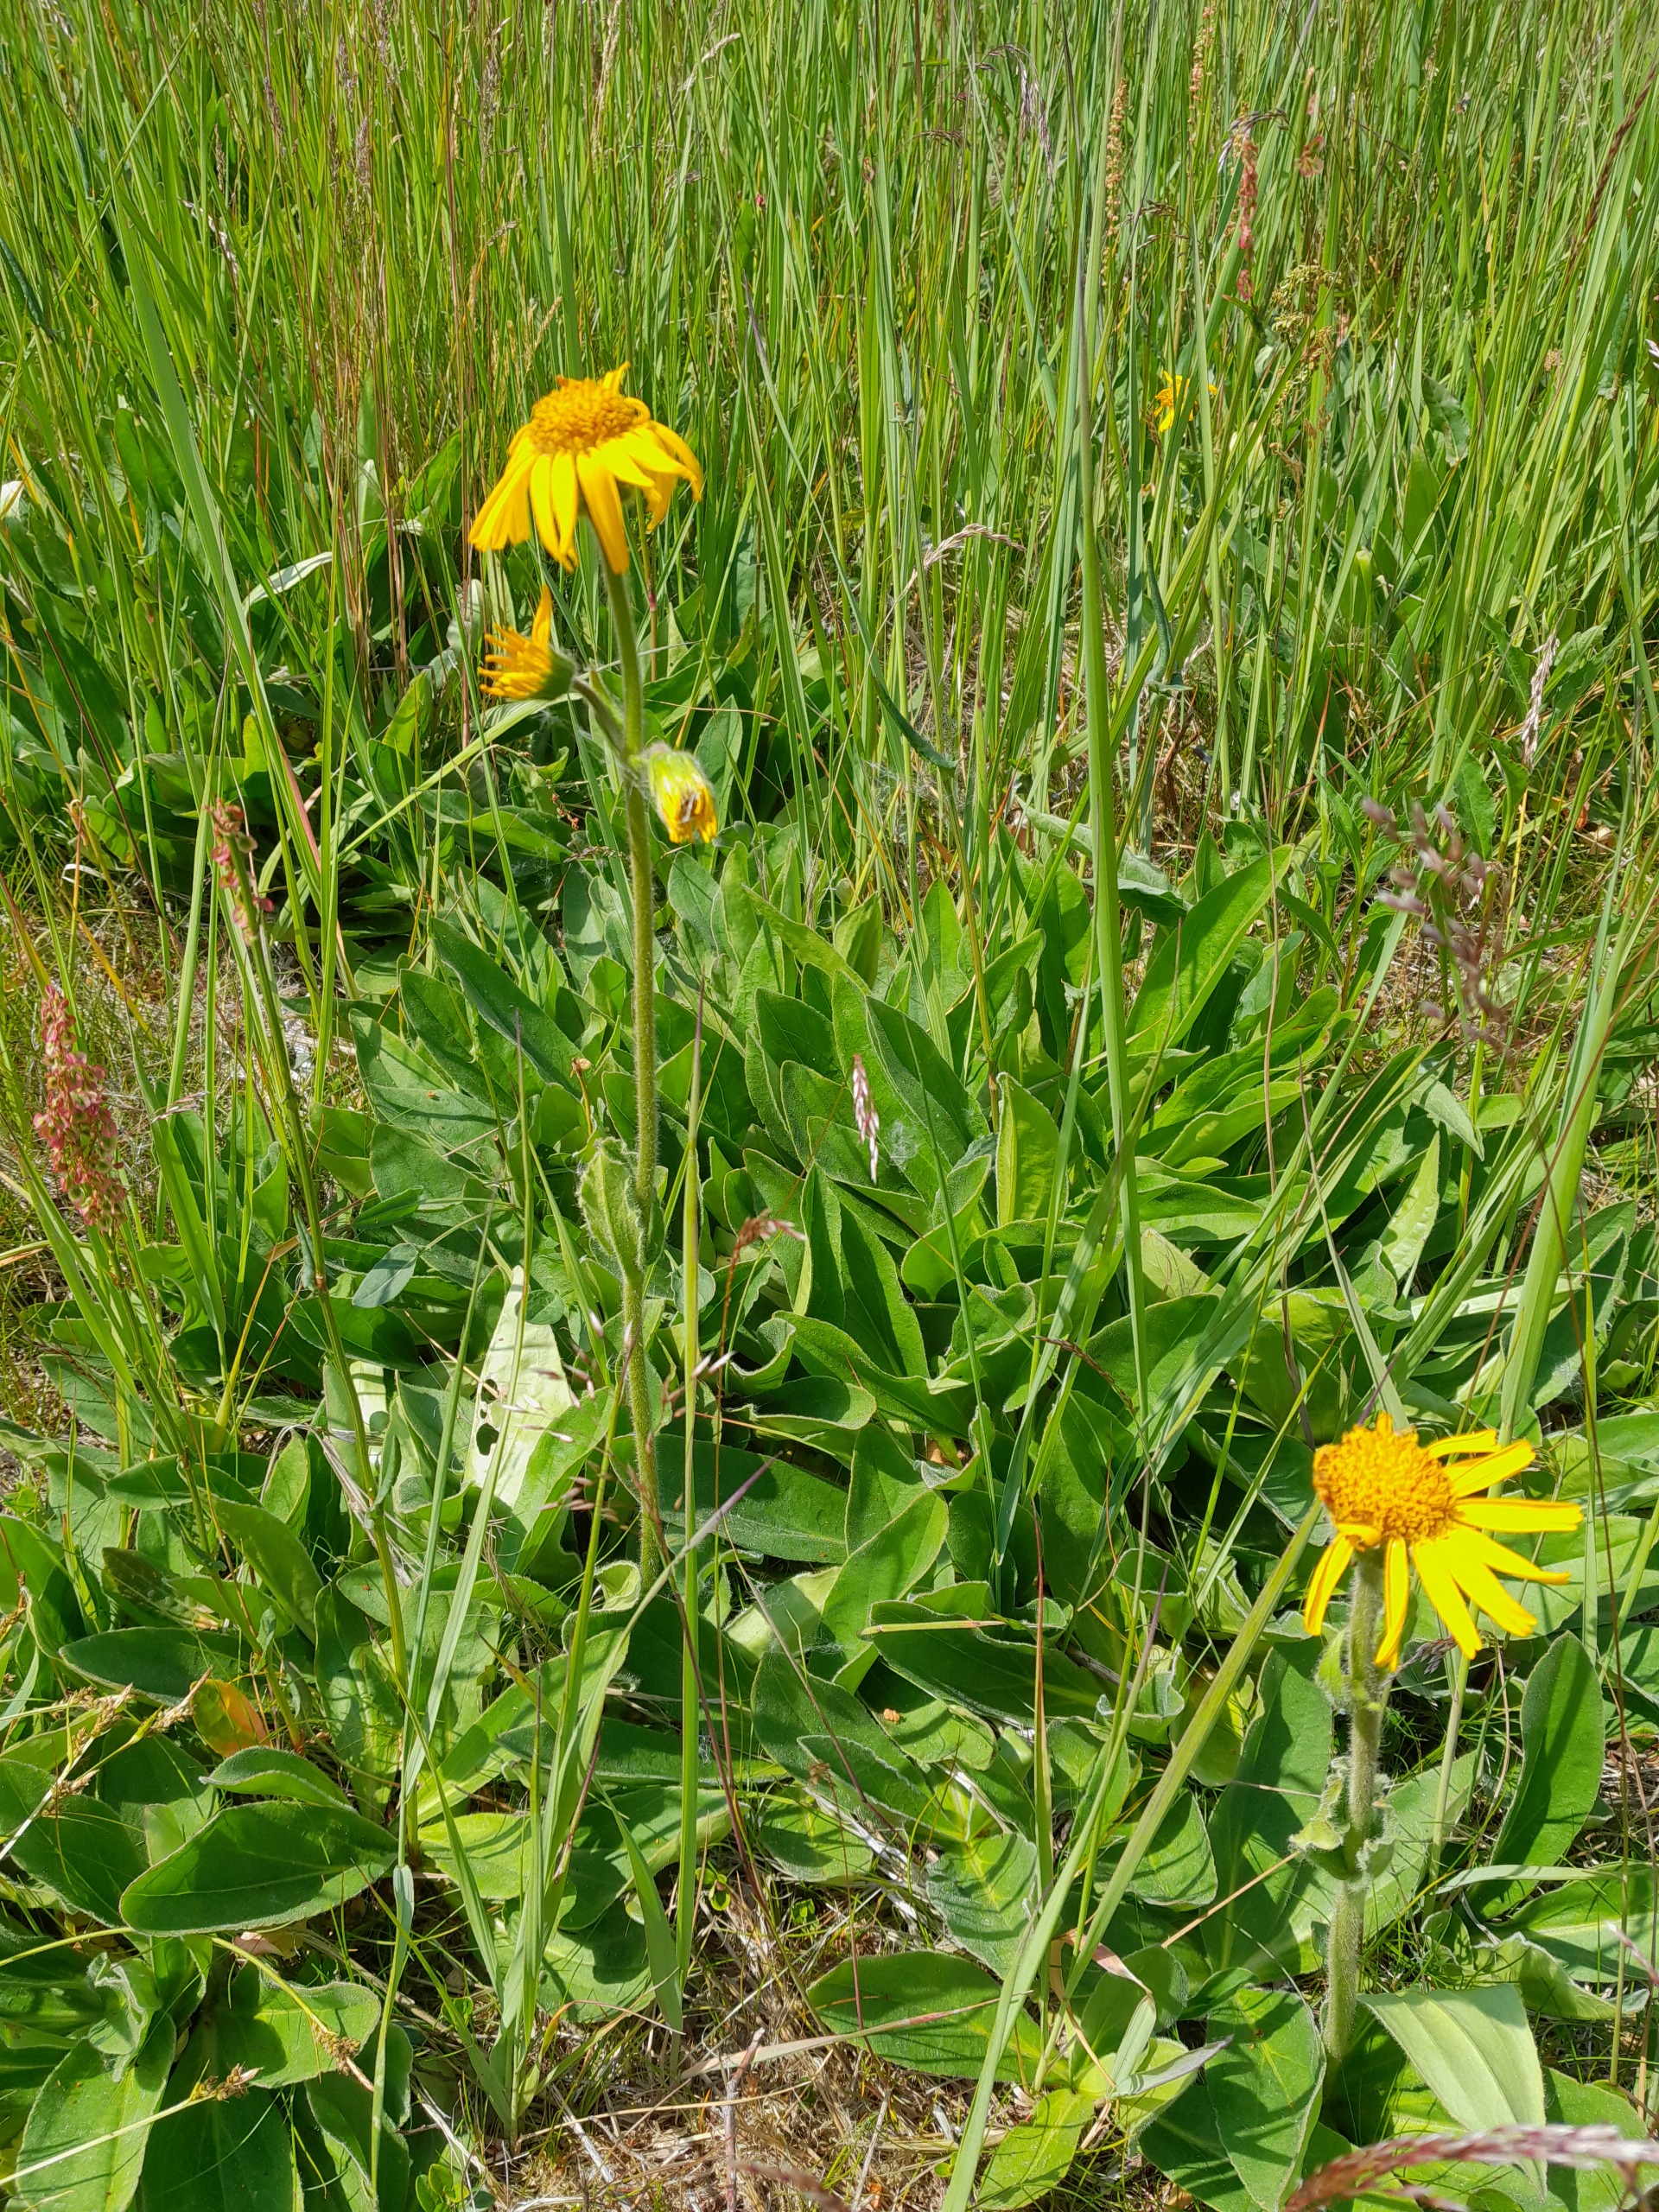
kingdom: Plantae
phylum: Tracheophyta
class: Magnoliopsida
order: Asterales
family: Asteraceae
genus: Arnica
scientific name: Arnica montana
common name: Guldblomme
